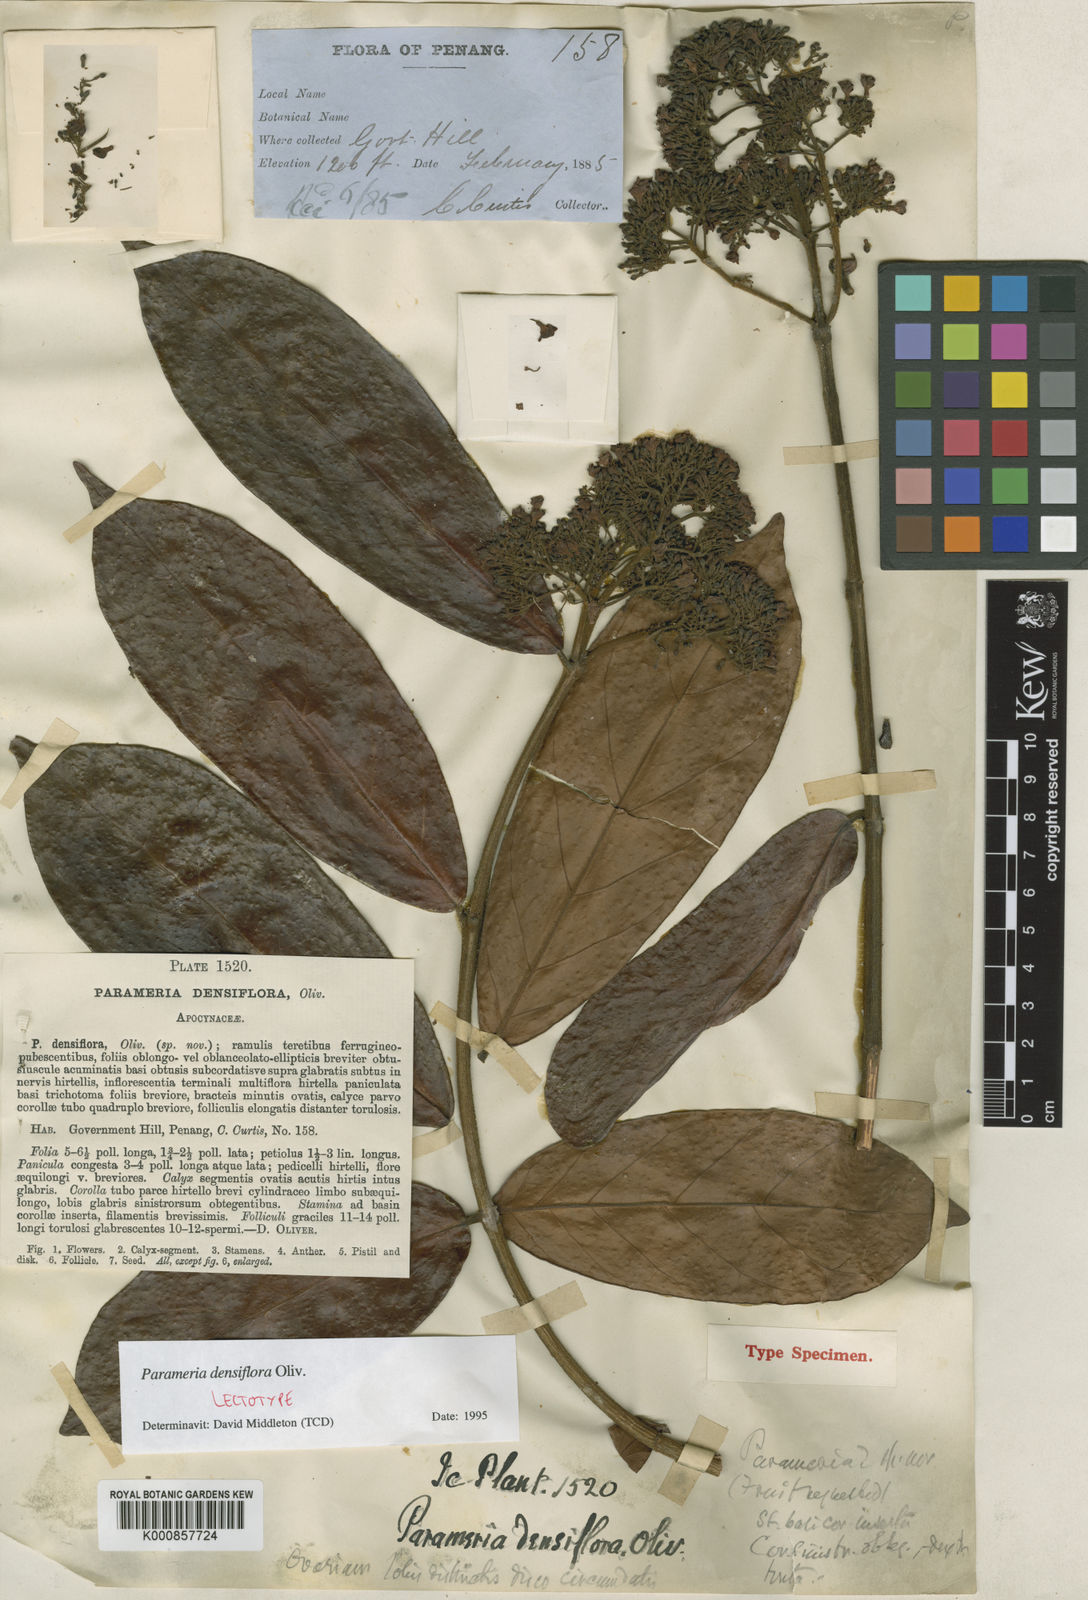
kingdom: Plantae
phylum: Tracheophyta
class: Magnoliopsida
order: Gentianales
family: Apocynaceae
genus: Urceola
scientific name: Urceola densiflora
